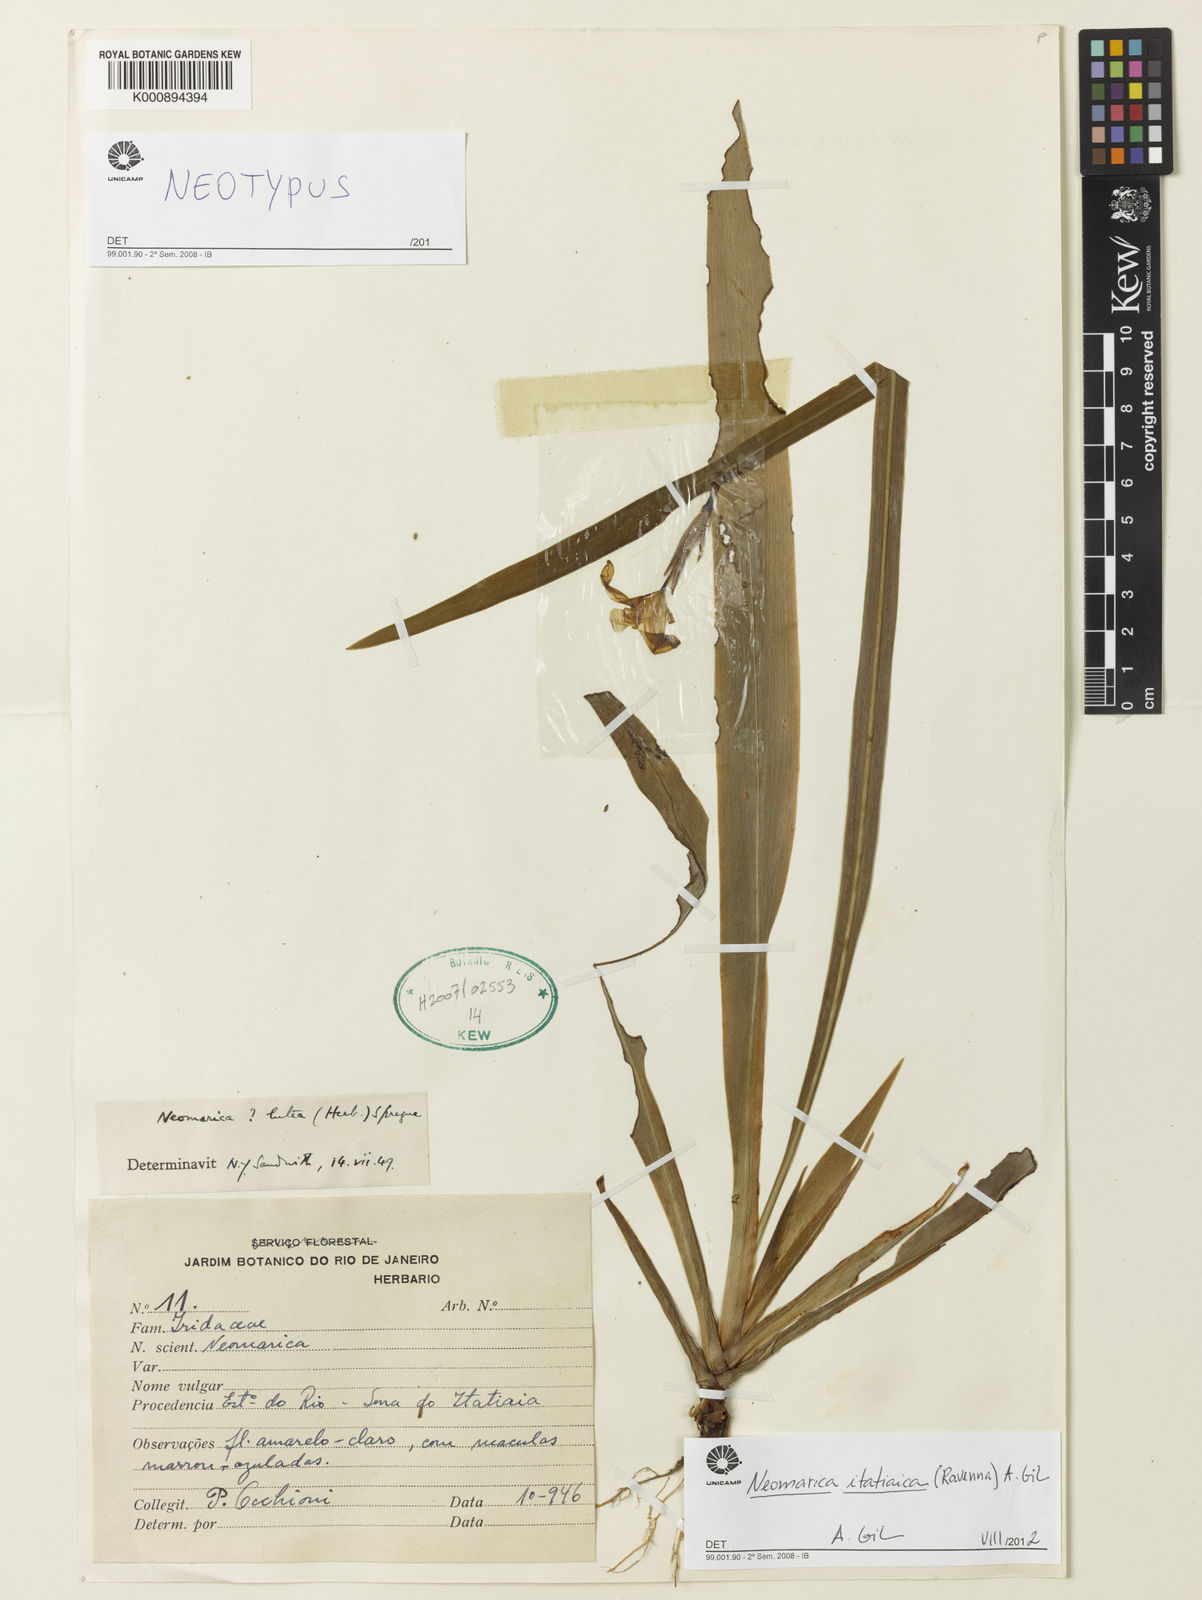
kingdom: Plantae
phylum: Tracheophyta
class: Liliopsida
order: Asparagales
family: Iridaceae
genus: Trimezia
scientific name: Trimezia itatiaica
